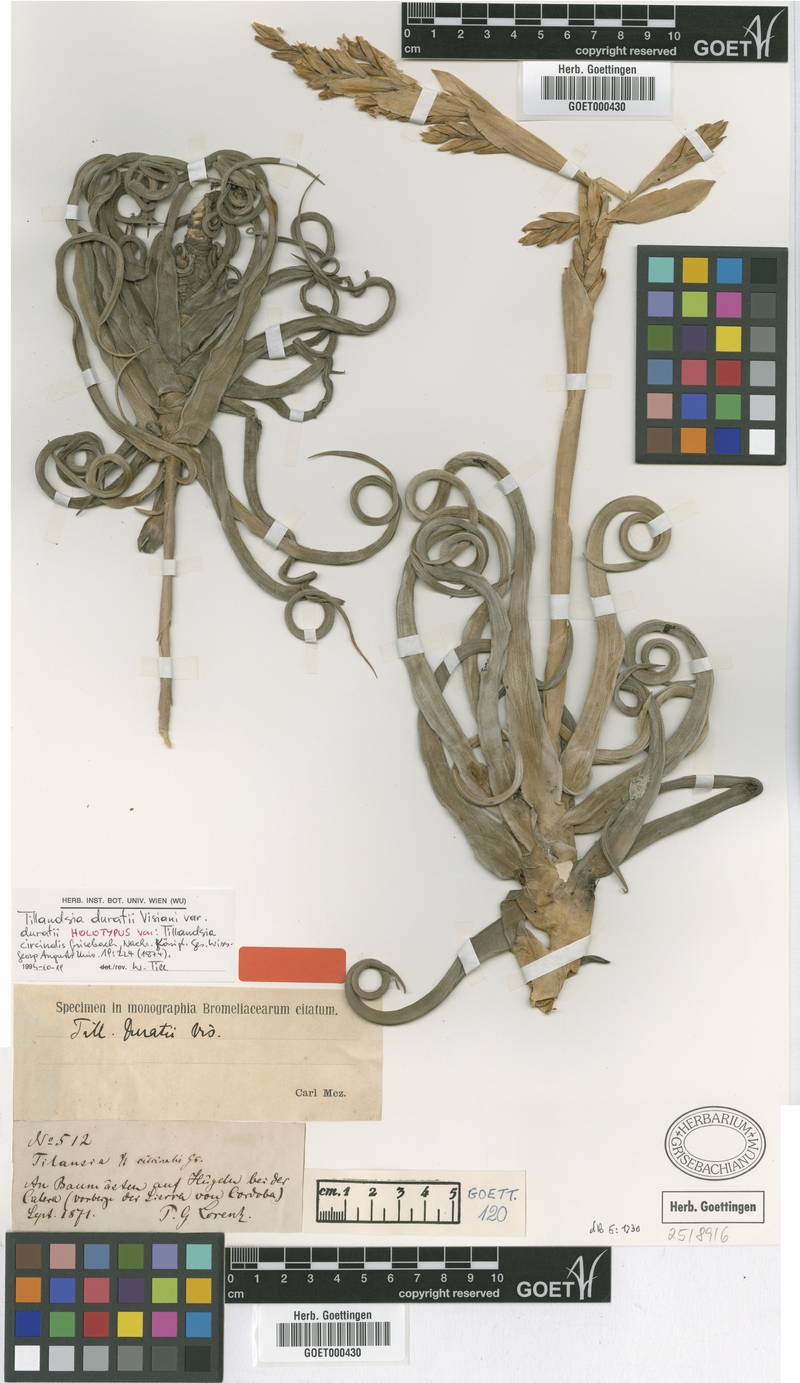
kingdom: Plantae
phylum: Tracheophyta
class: Liliopsida
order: Poales
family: Bromeliaceae
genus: Tillandsia
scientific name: Tillandsia duratii
